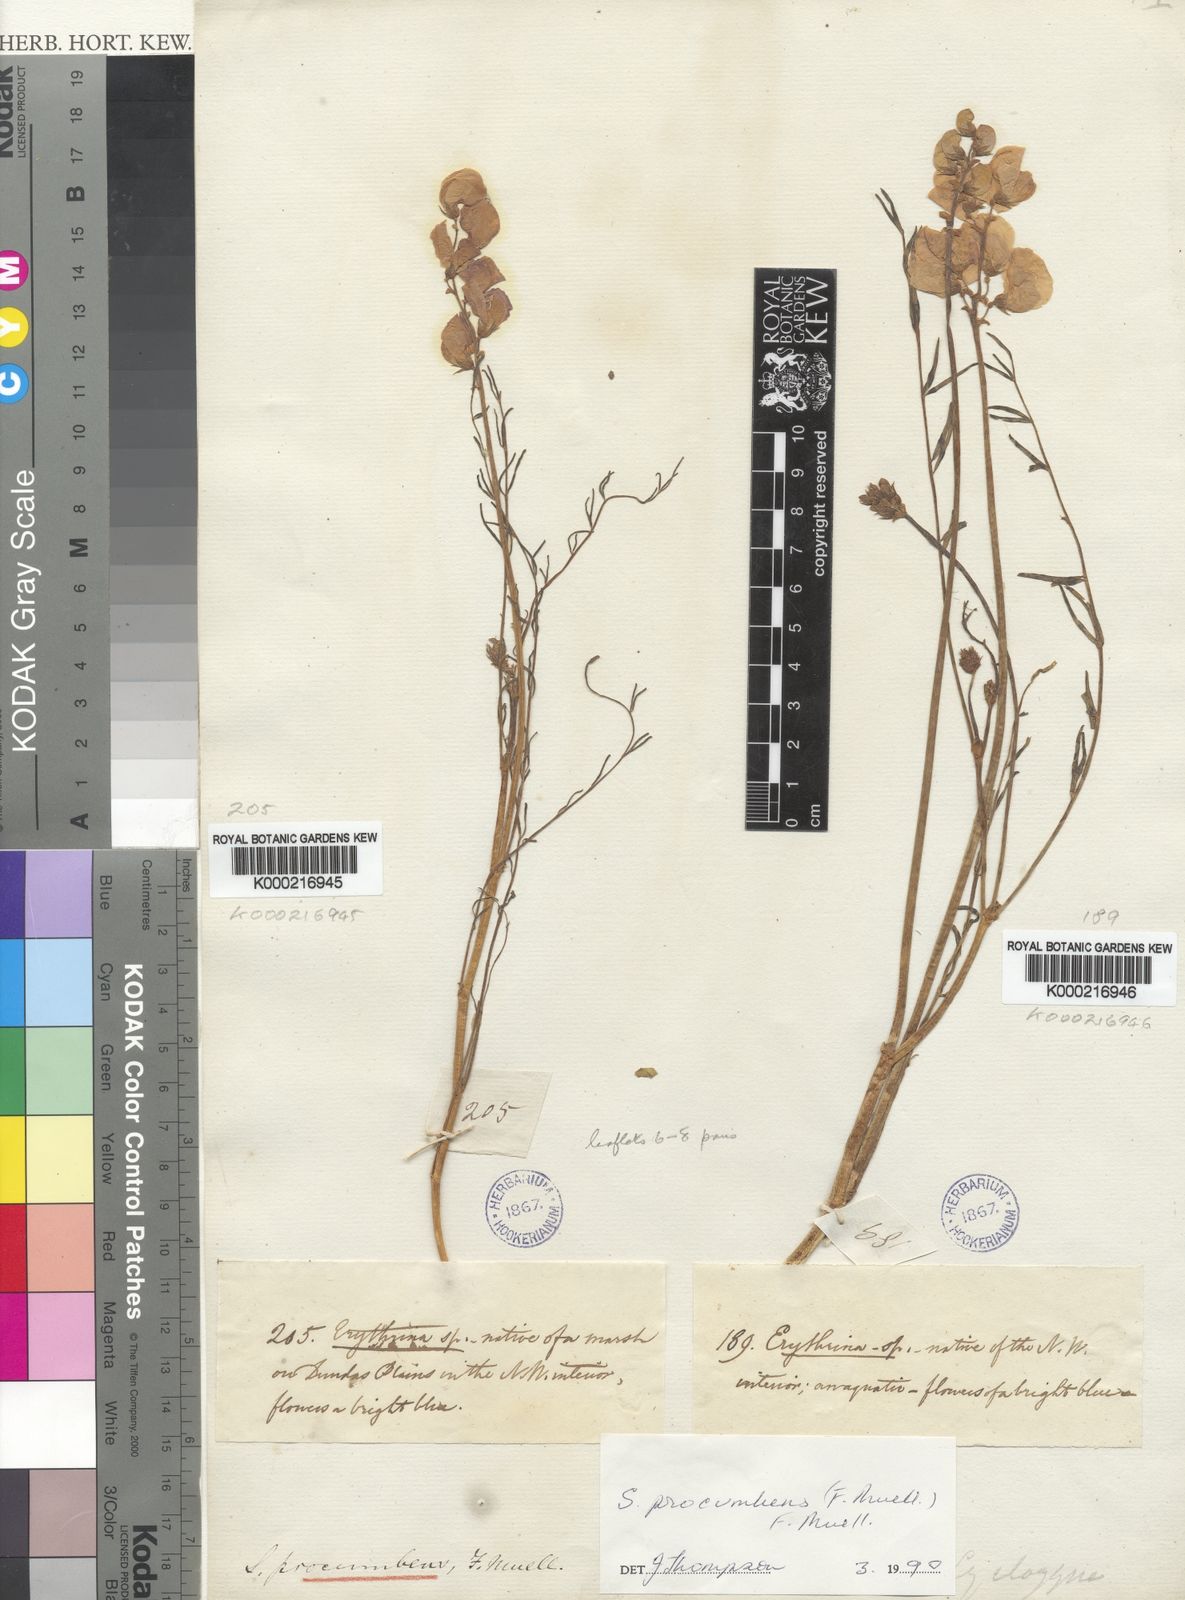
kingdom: Plantae
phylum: Tracheophyta
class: Magnoliopsida
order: Fabales
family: Fabaceae
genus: Swainsona
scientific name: Swainsona procumbens
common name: Broughton-pea
